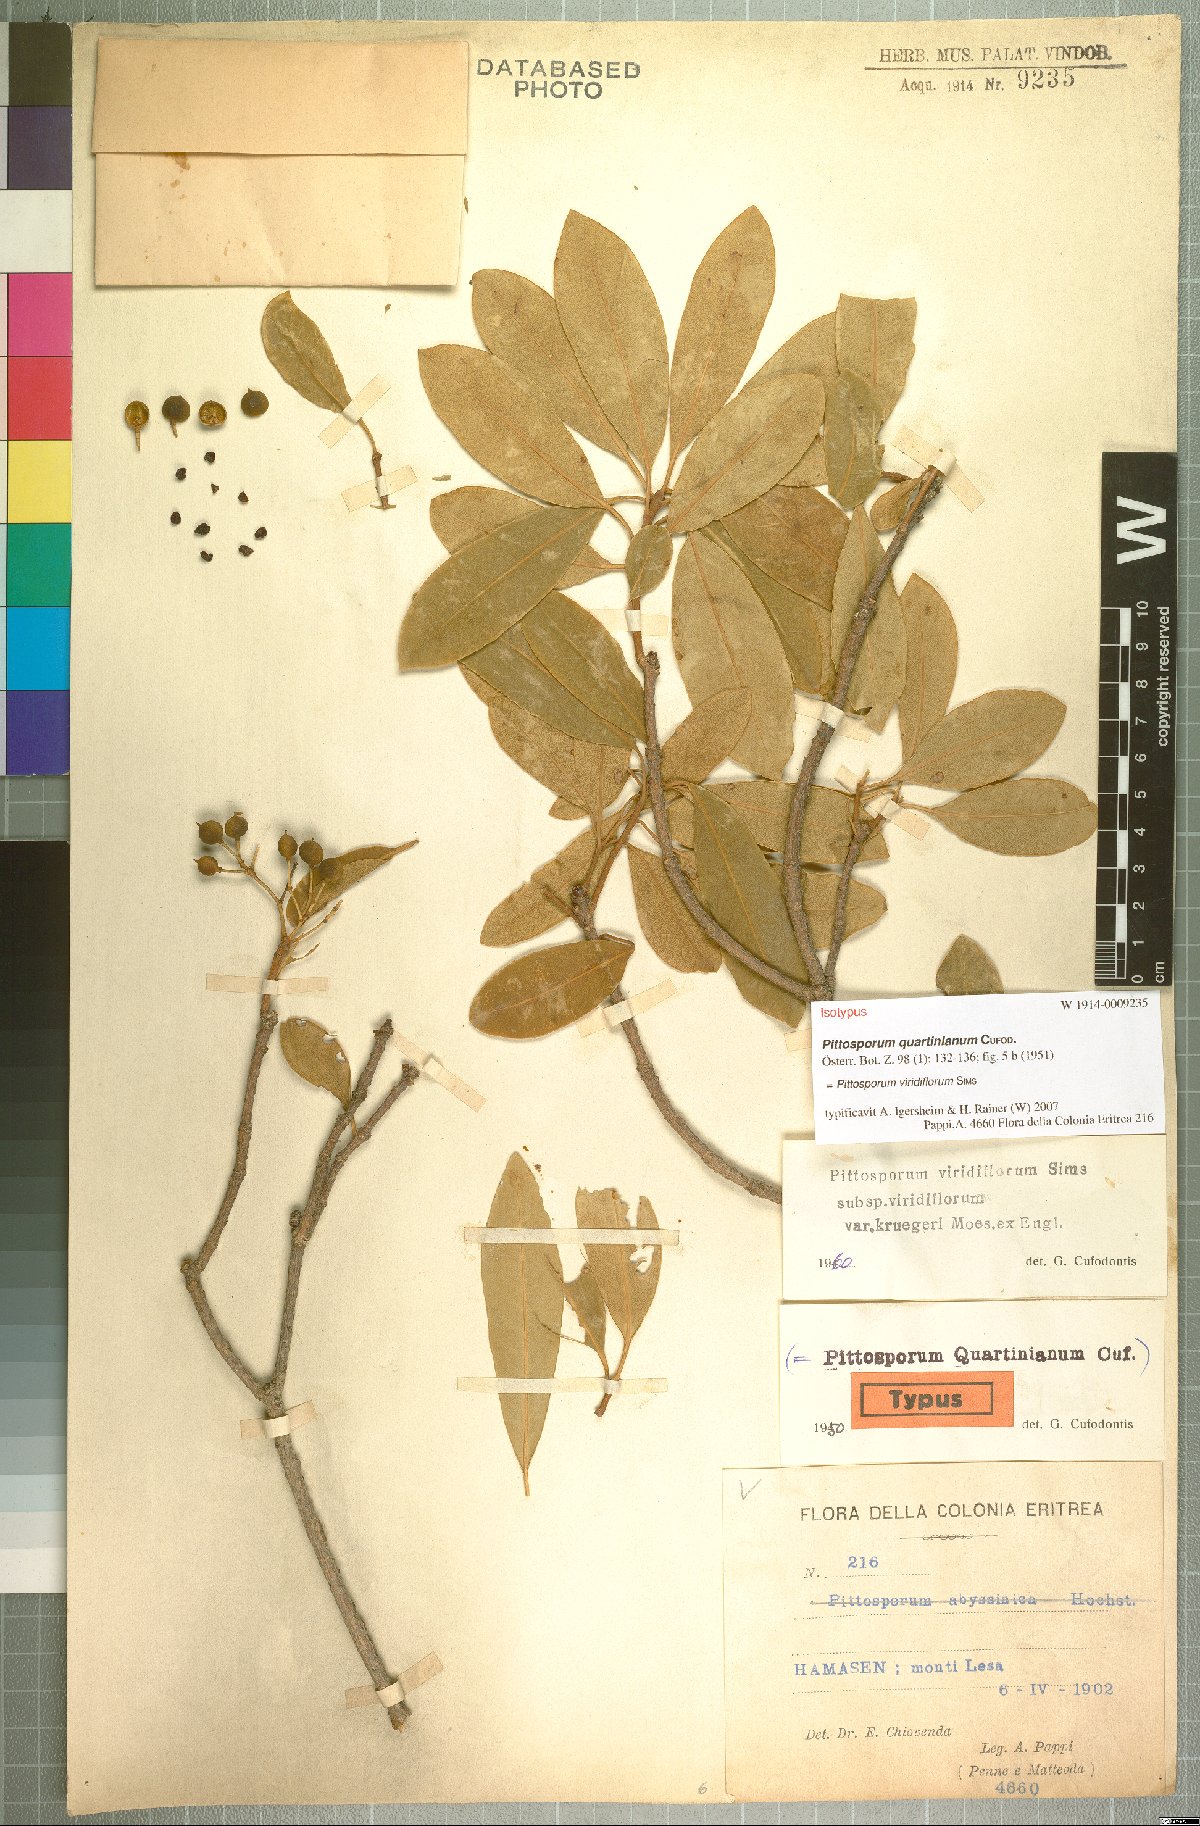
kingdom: Plantae
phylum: Tracheophyta
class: Magnoliopsida
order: Apiales
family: Pittosporaceae
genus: Pittosporum
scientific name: Pittosporum viridiflorum
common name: Cape cheesewood
